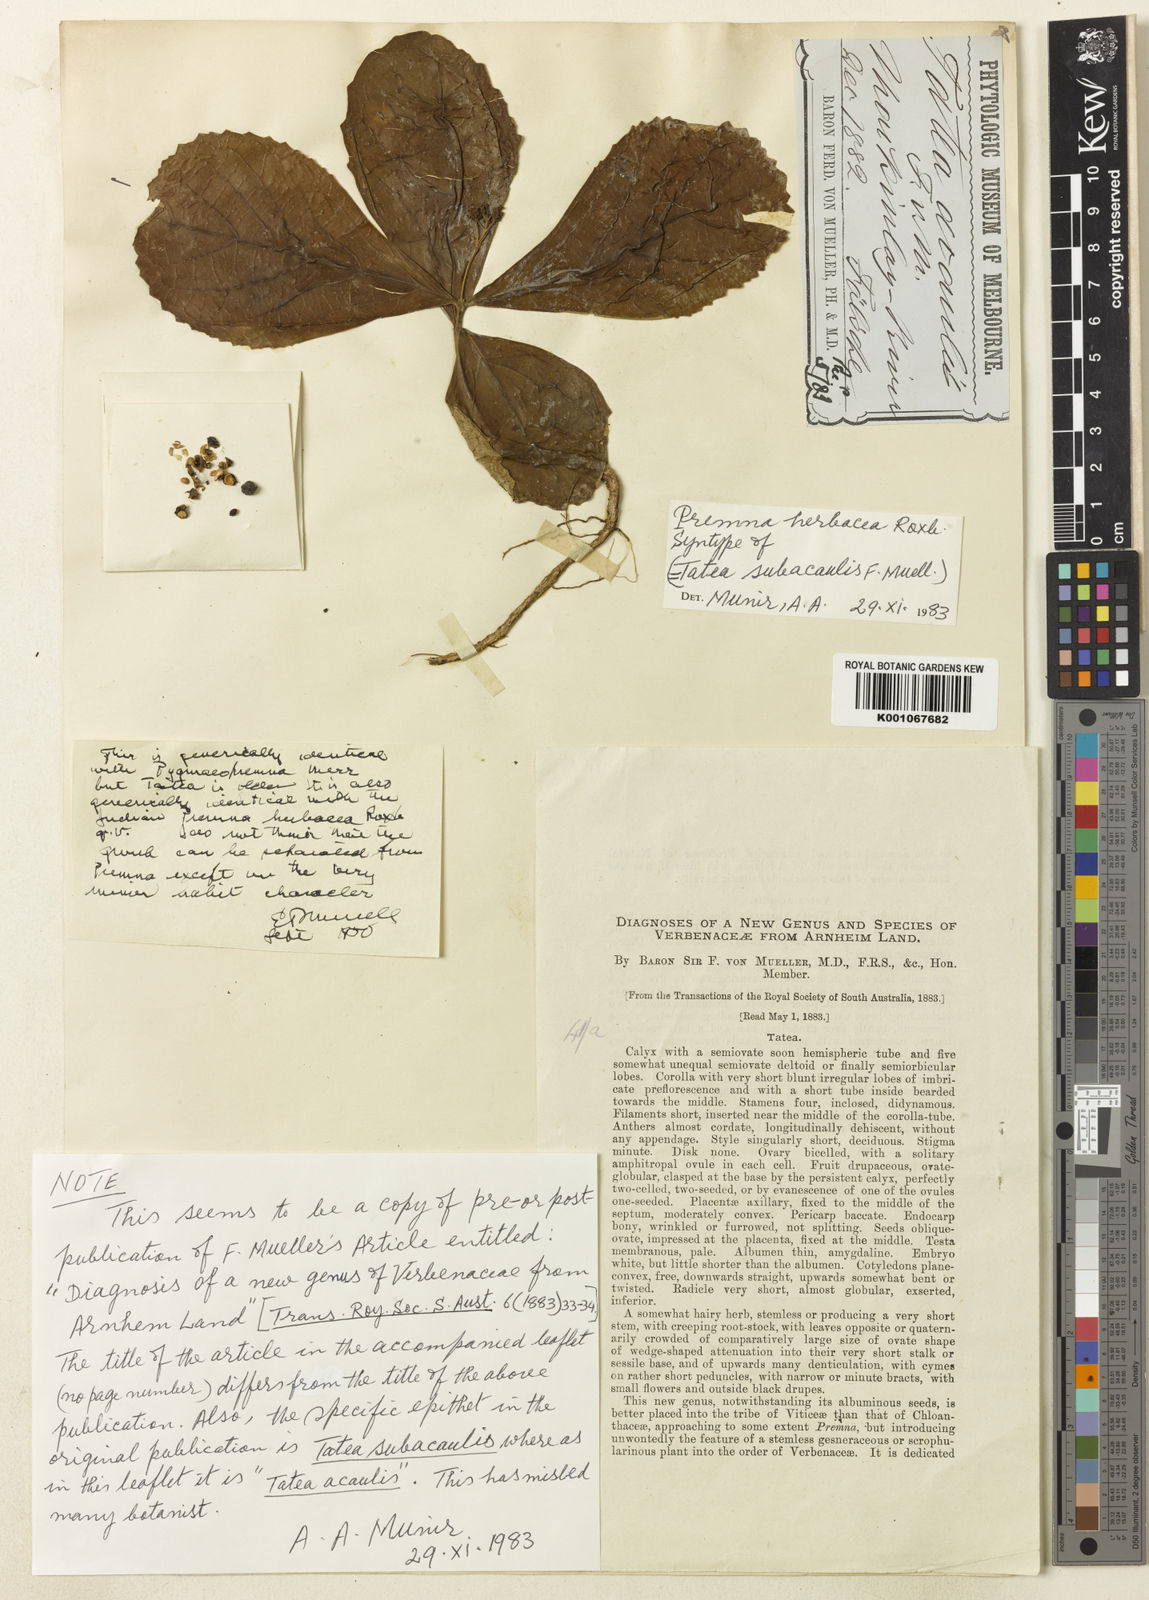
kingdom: Plantae
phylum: Tracheophyta
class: Magnoliopsida
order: Lamiales
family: Lamiaceae
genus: Premna
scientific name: Premna herbacea
